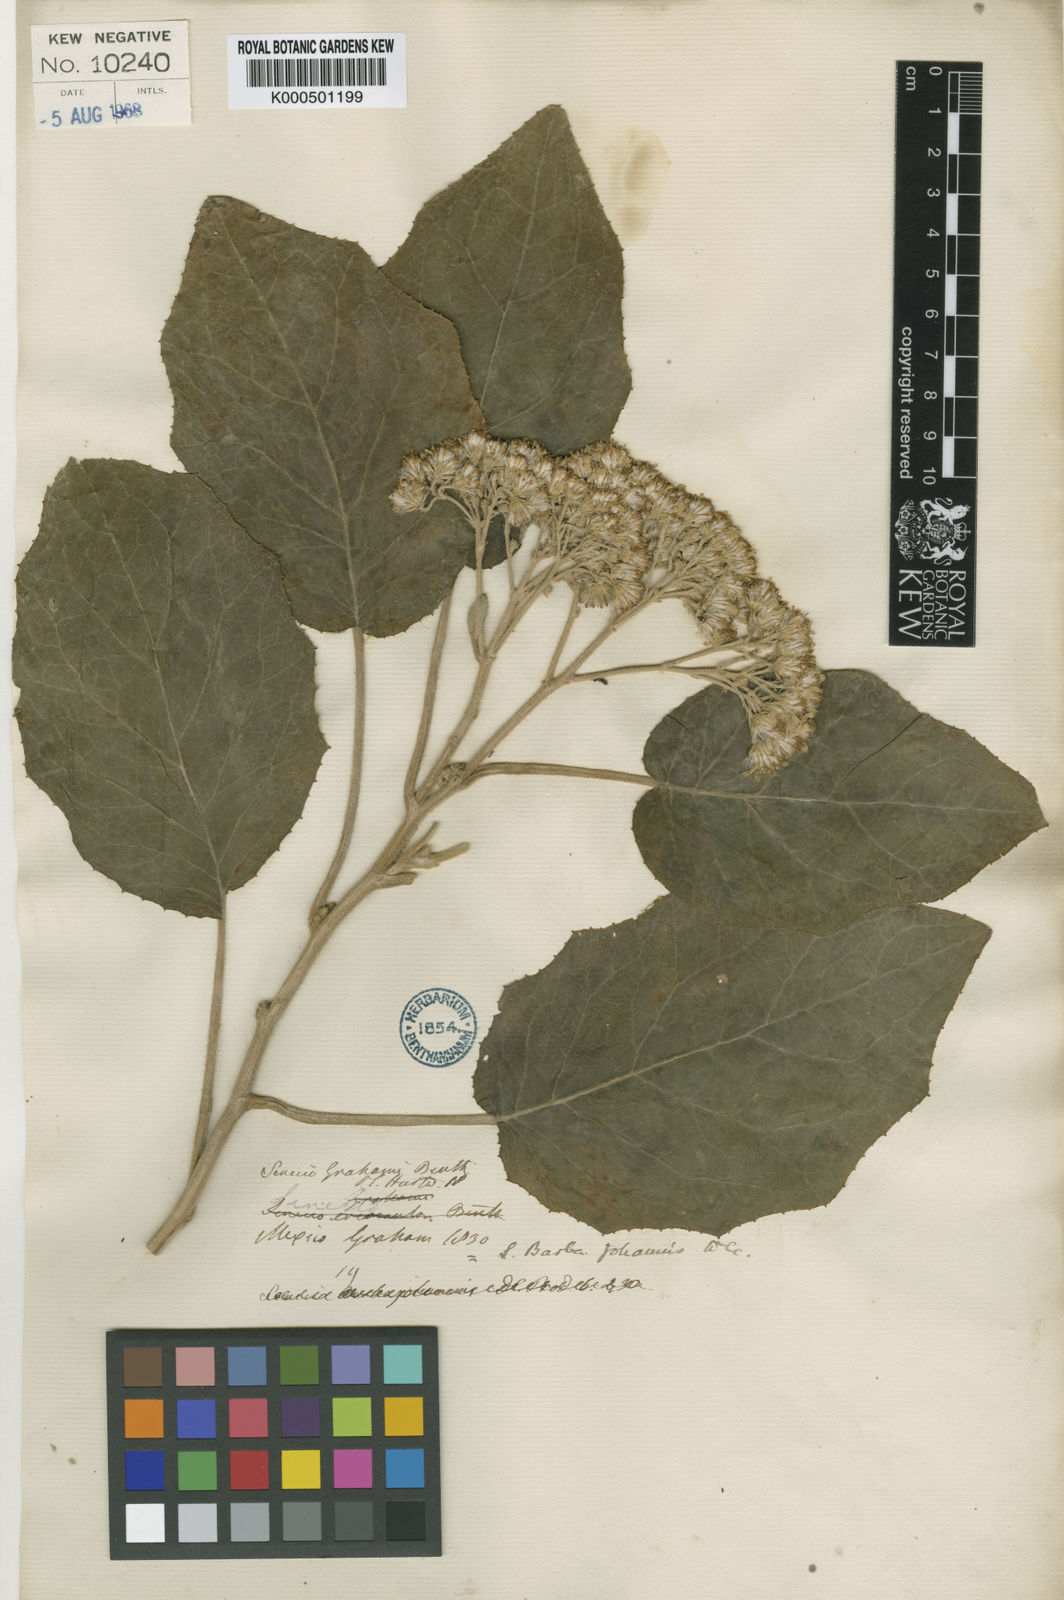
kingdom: Plantae
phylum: Tracheophyta
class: Magnoliopsida
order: Asterales
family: Asteraceae
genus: Roldana
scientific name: Roldana barba-johannis
